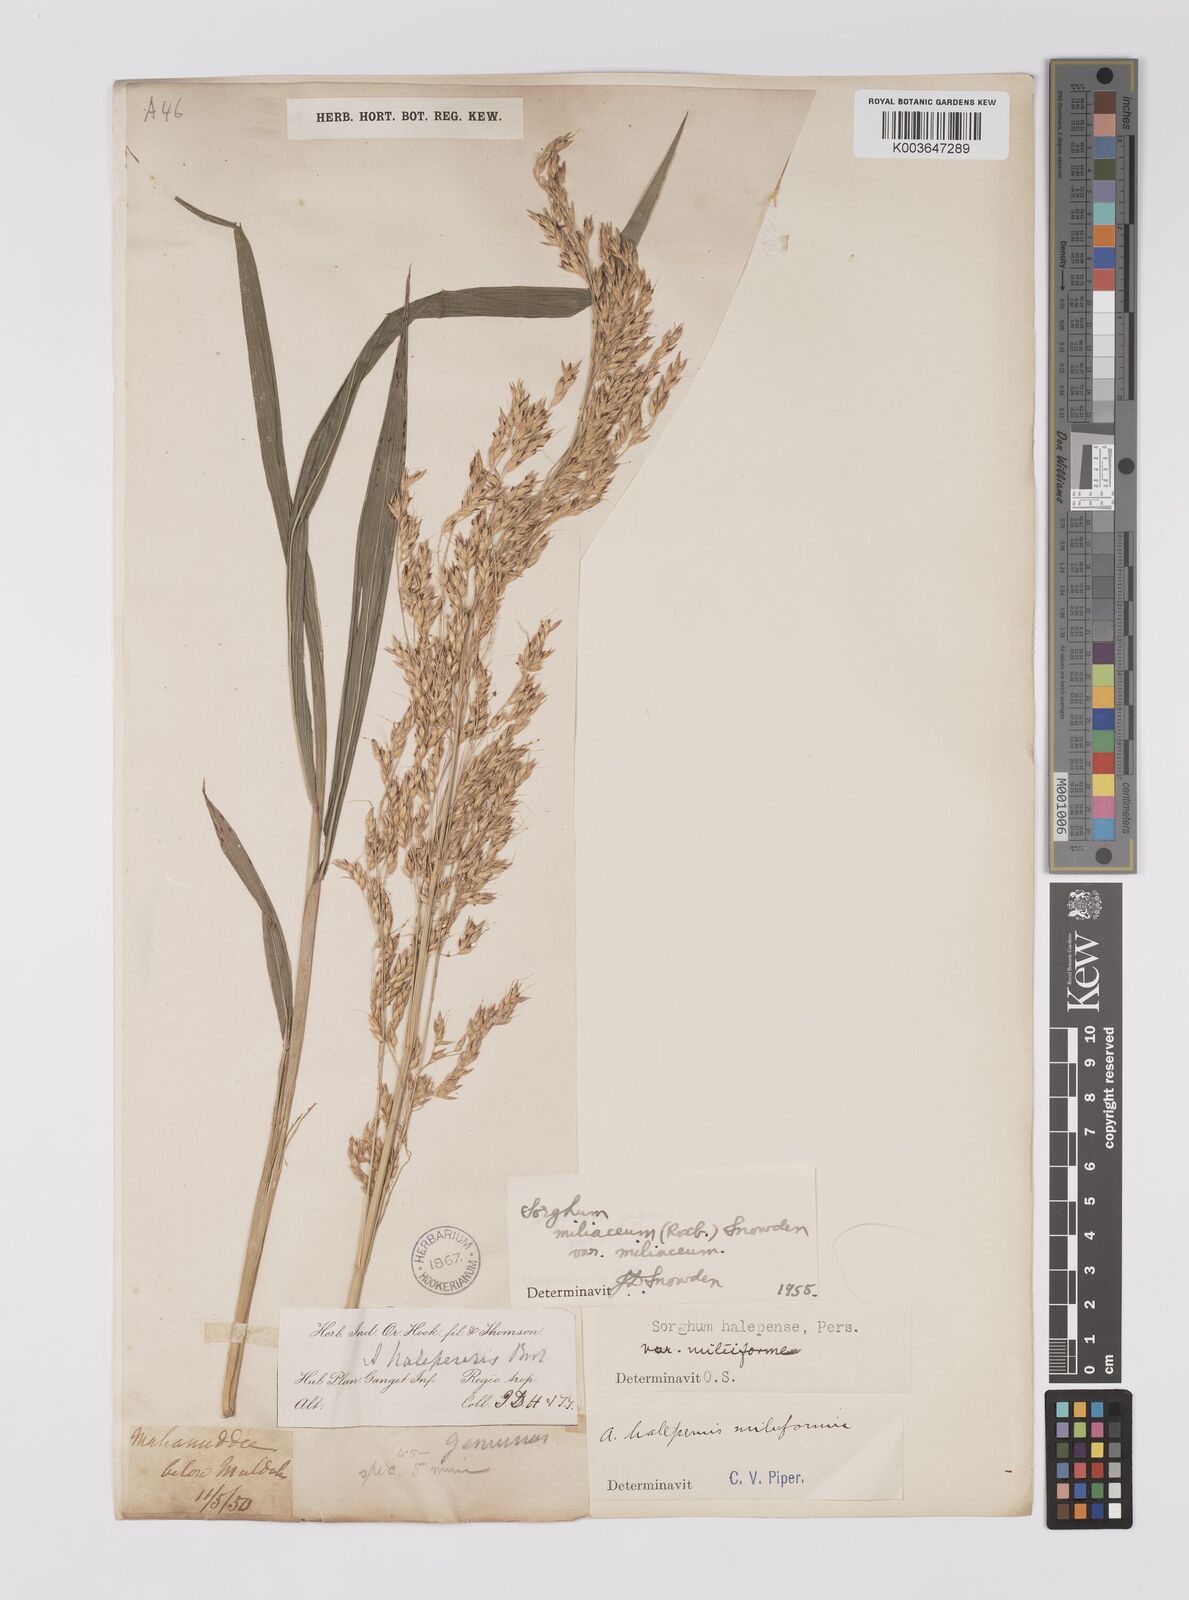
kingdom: Plantae
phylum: Tracheophyta
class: Liliopsida
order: Poales
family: Poaceae
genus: Sorghum
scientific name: Sorghum halepense
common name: Johnson-grass
